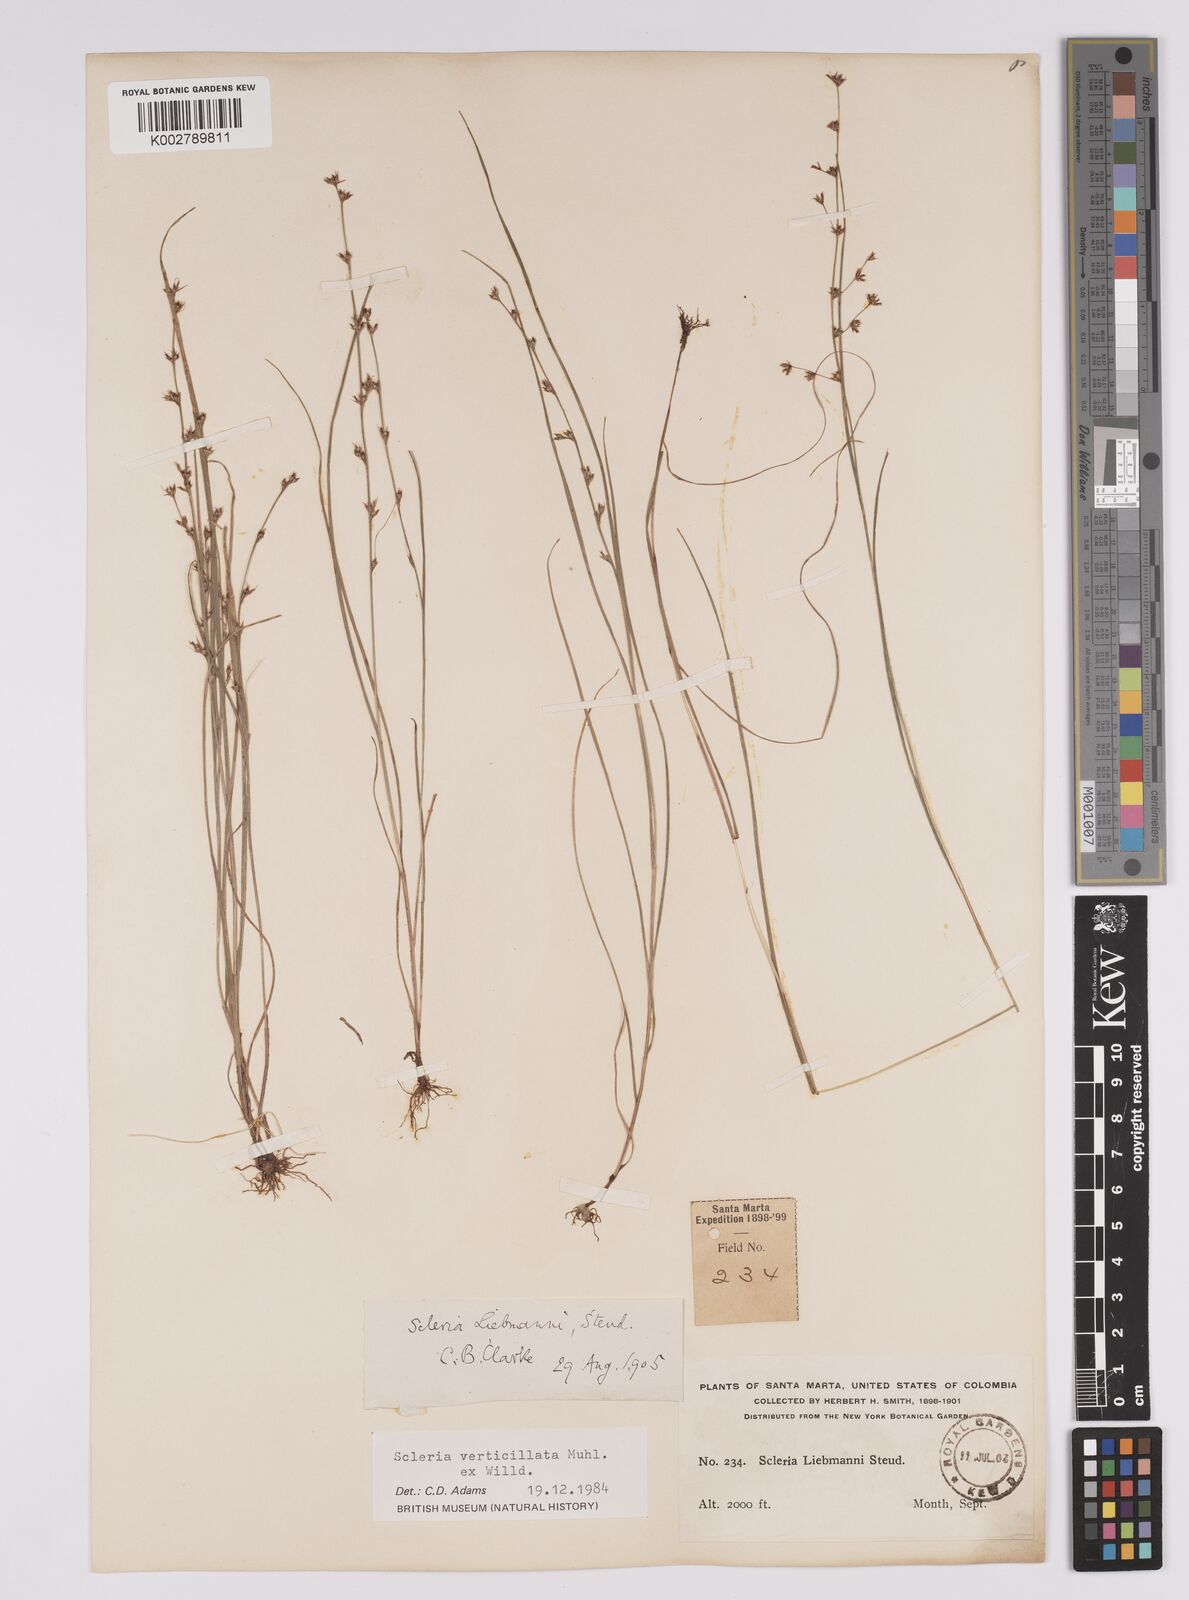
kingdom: Plantae
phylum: Tracheophyta
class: Liliopsida
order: Poales
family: Cyperaceae
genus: Scleria
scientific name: Scleria distans
